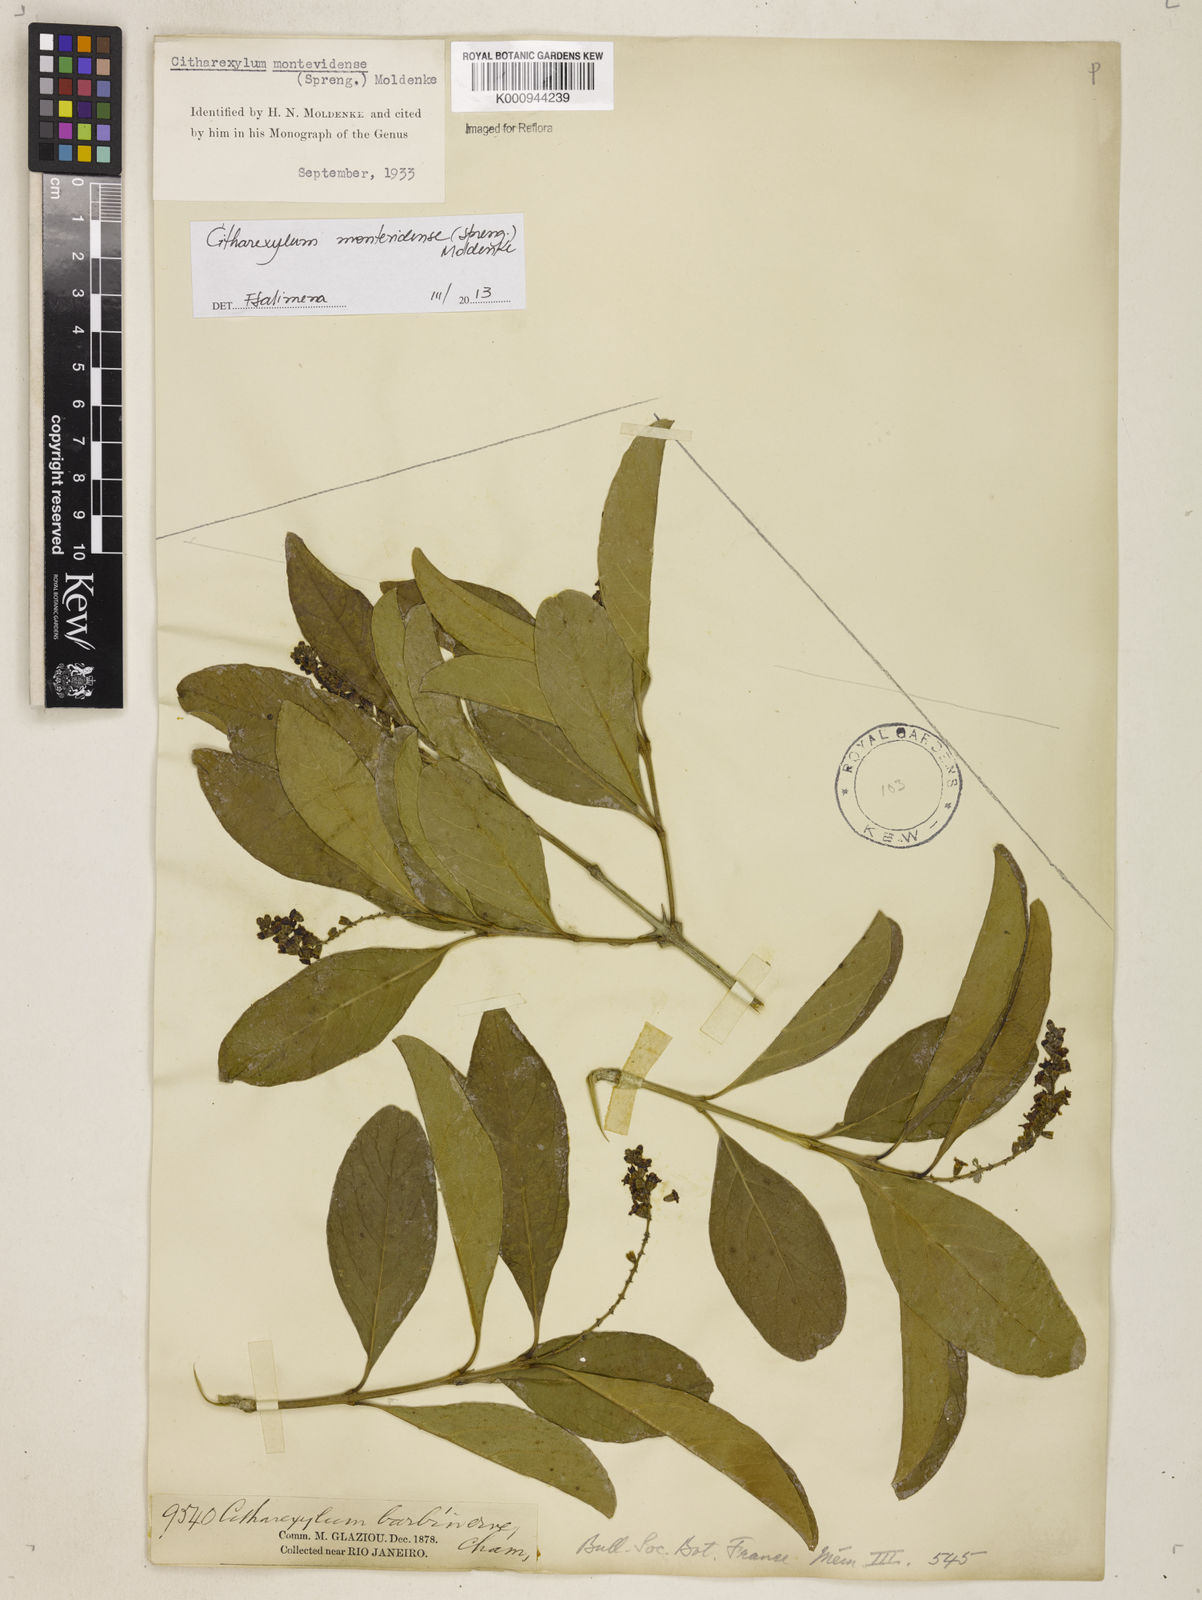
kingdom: Plantae
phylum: Tracheophyta
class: Magnoliopsida
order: Lamiales
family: Verbenaceae
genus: Citharexylum
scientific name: Citharexylum
